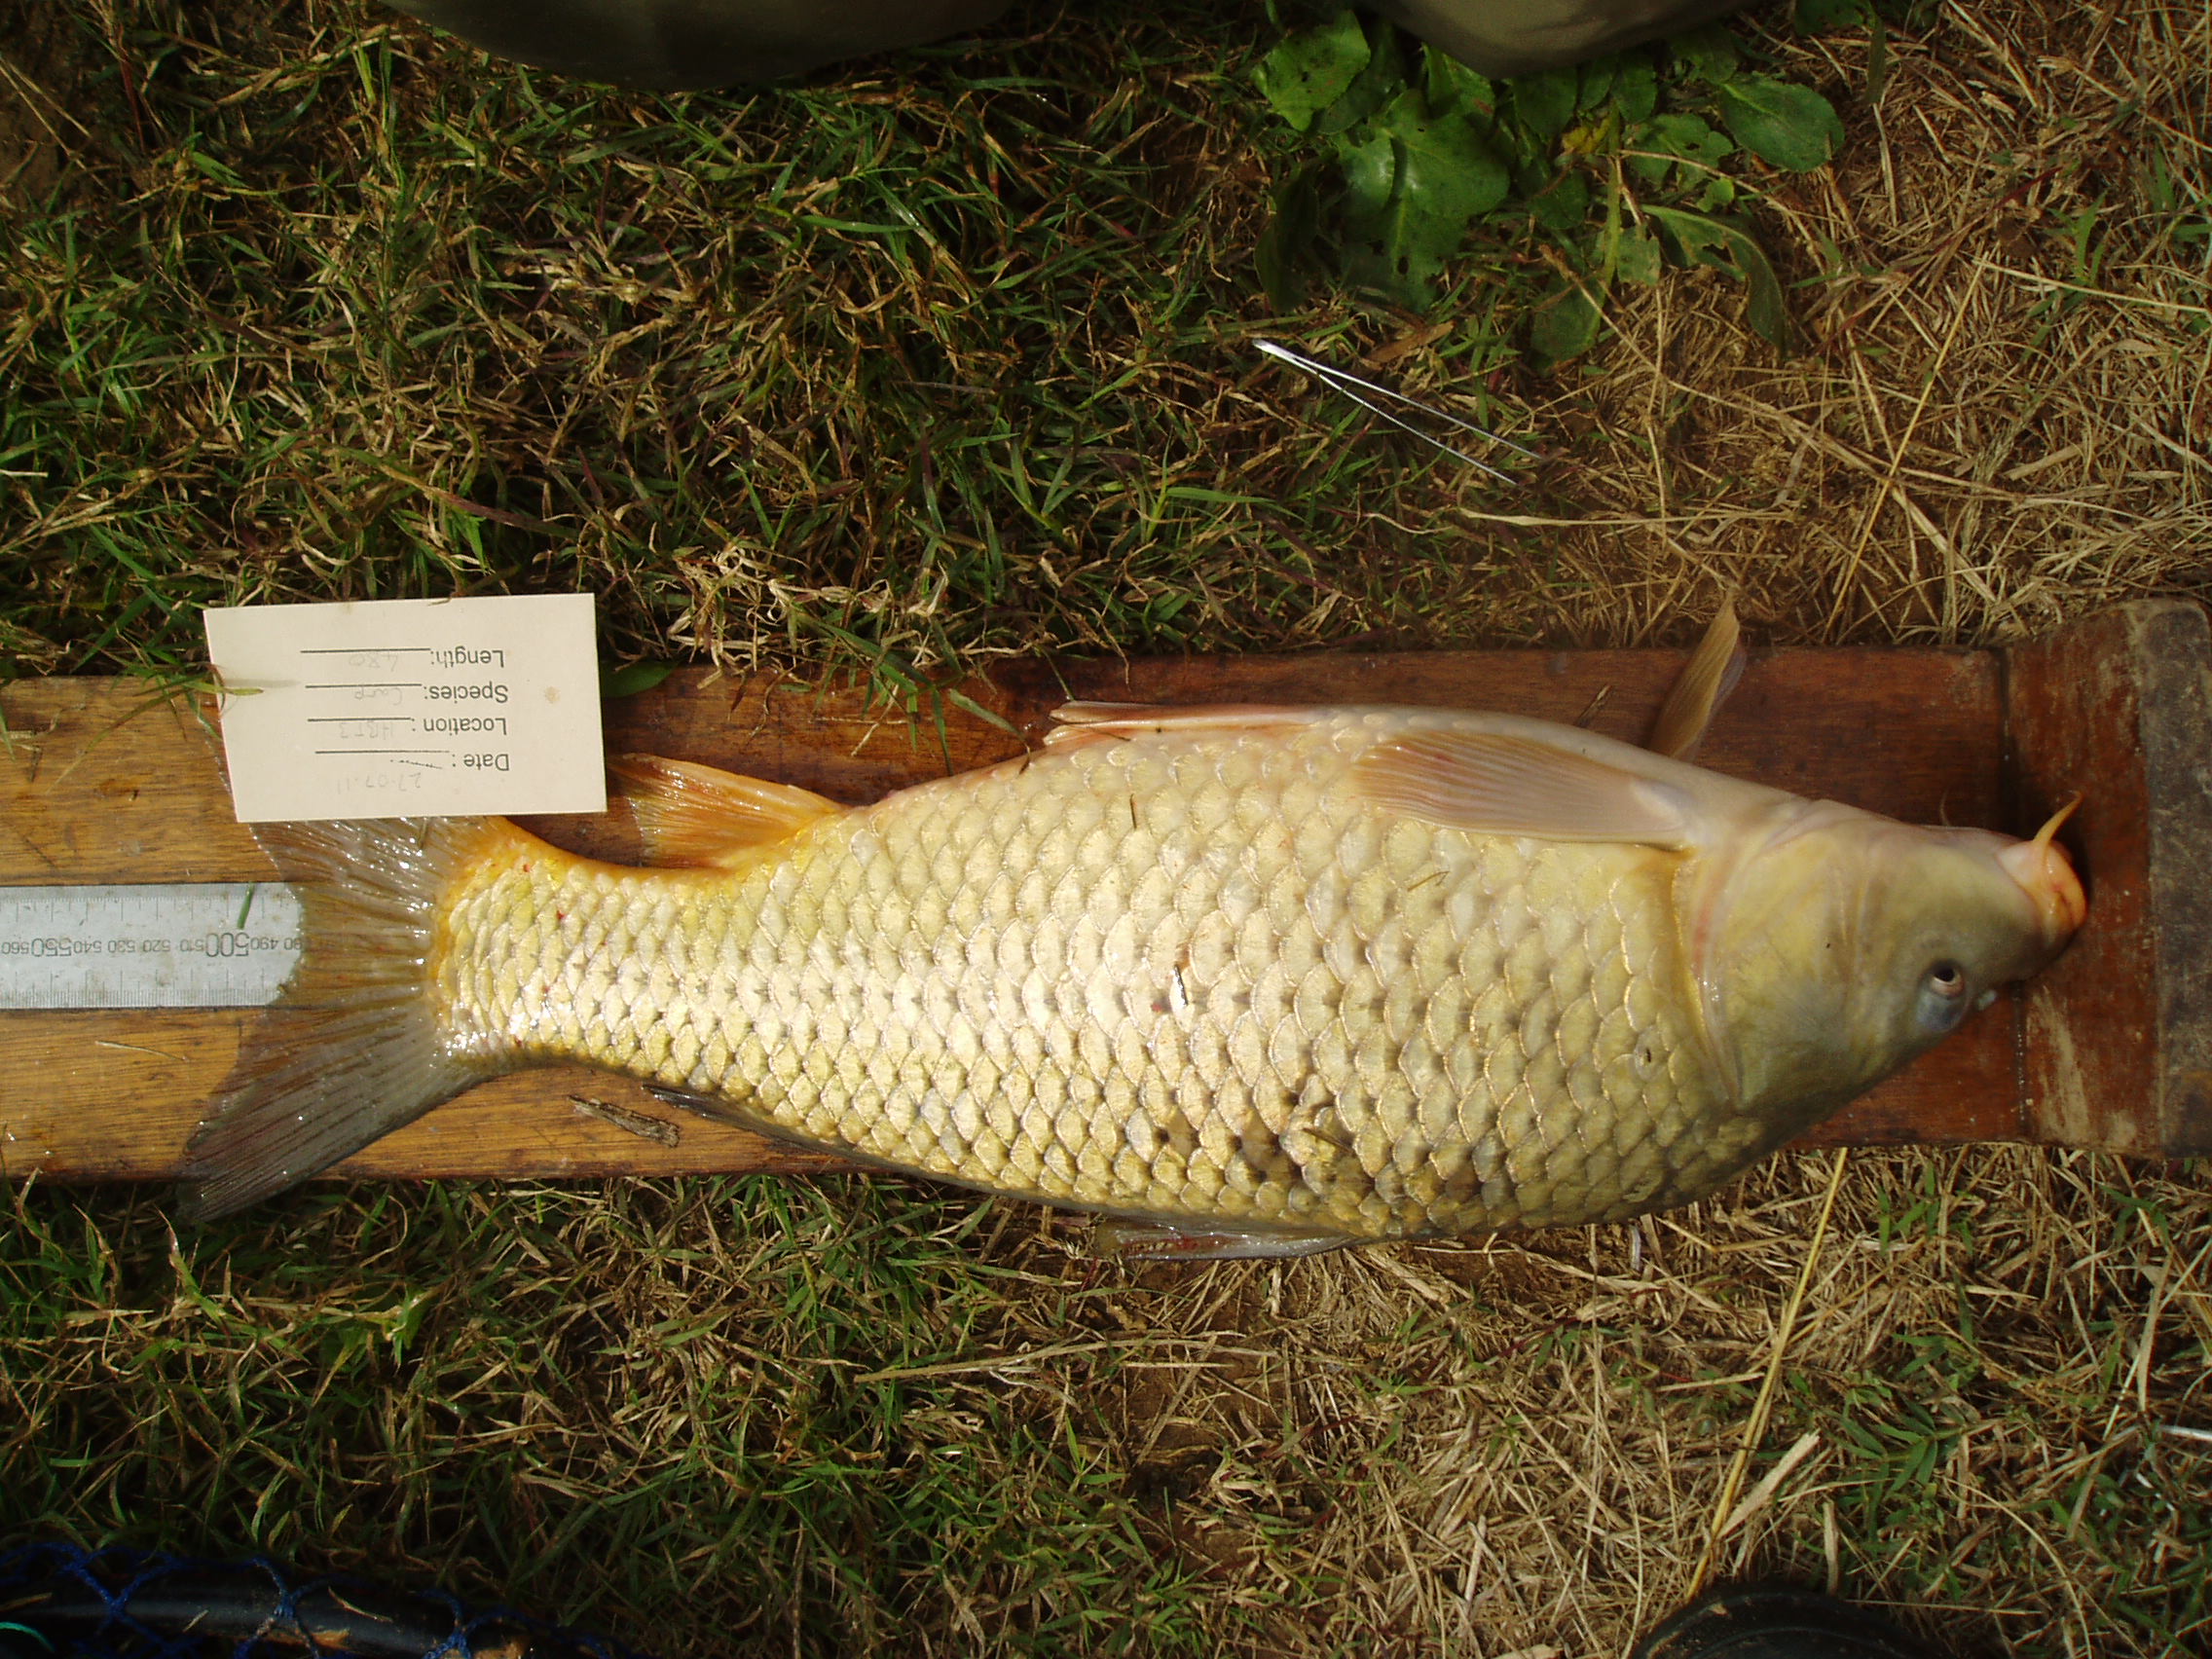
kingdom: Animalia
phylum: Chordata
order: Cypriniformes
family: Cyprinidae
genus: Cyprinus
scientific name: Cyprinus carpio
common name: Common carp
